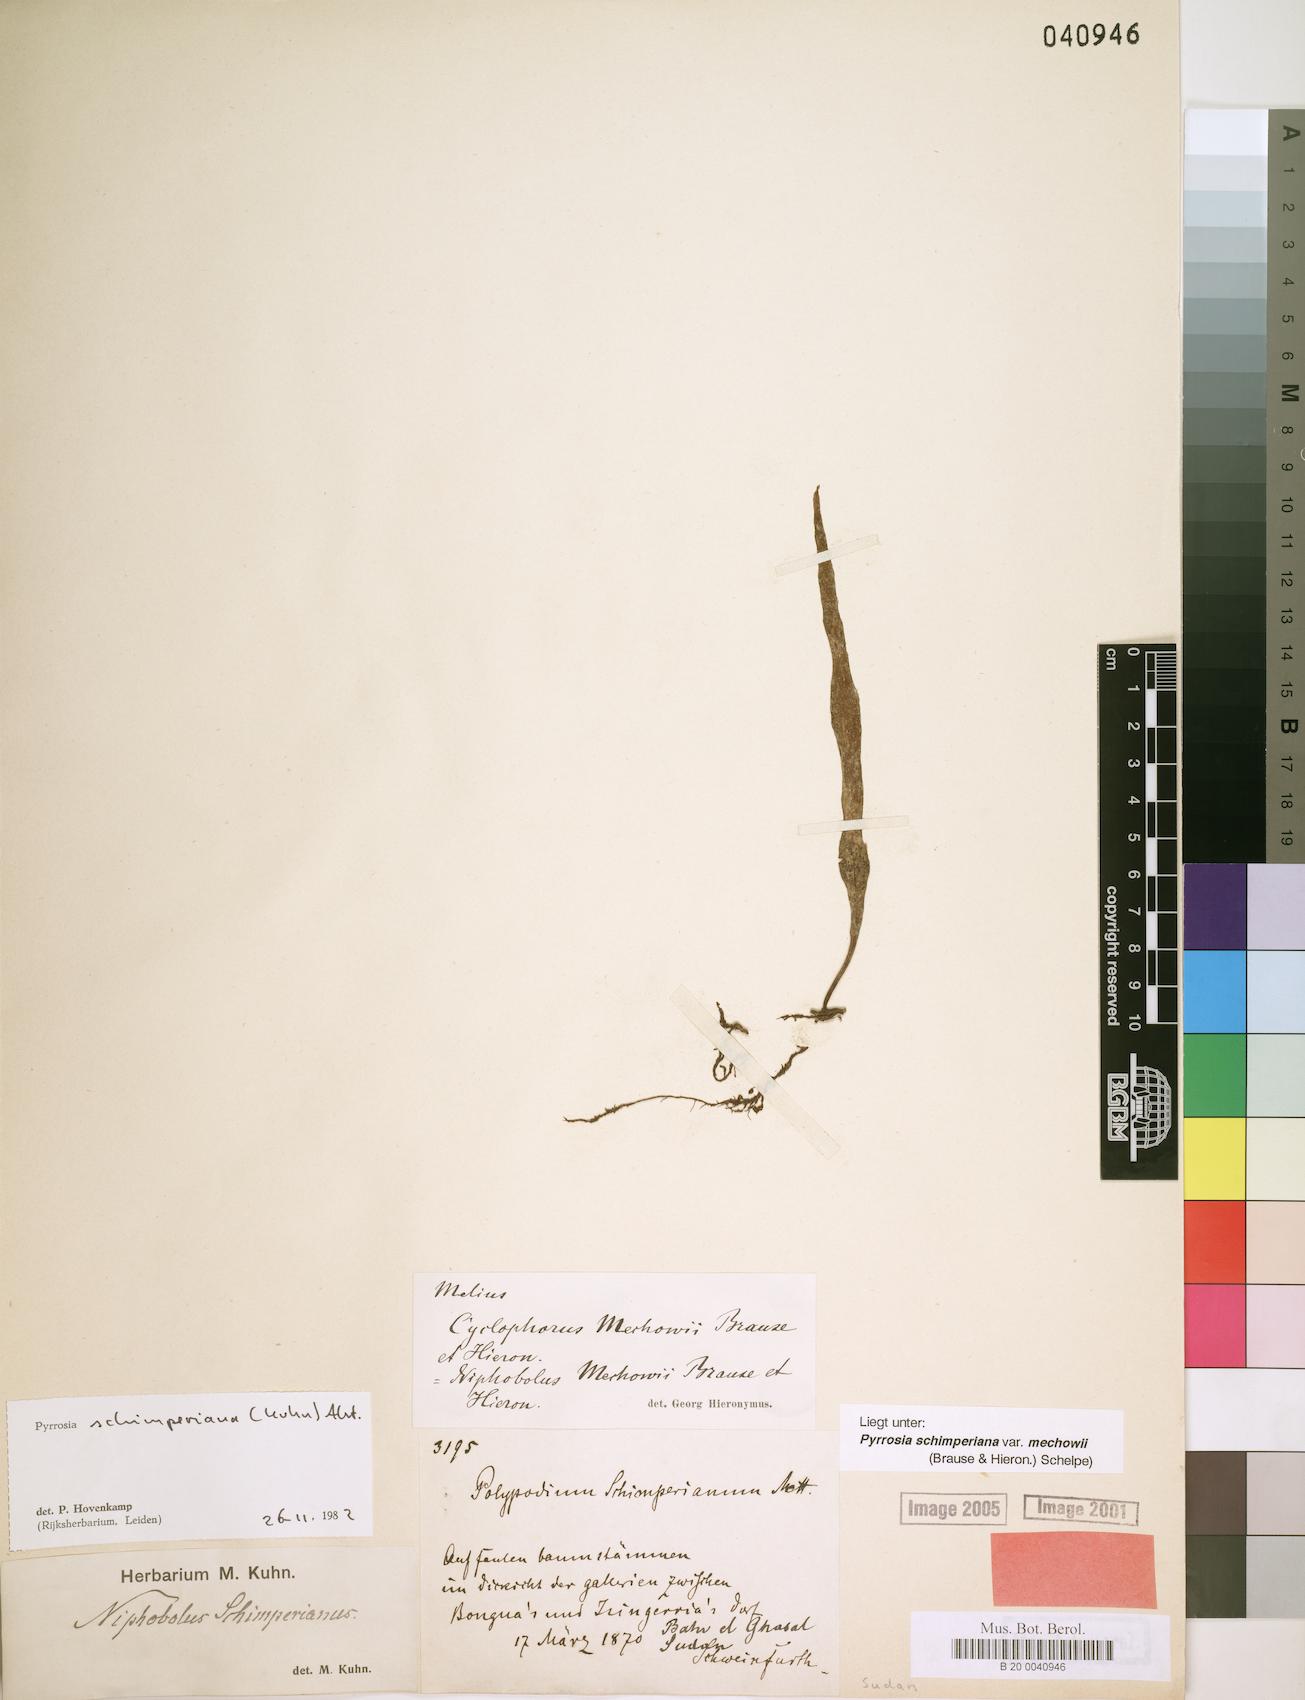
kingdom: Plantae
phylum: Tracheophyta
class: Polypodiopsida
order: Polypodiales
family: Polypodiaceae
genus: Hovenkampia
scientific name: Hovenkampia schimperiana
